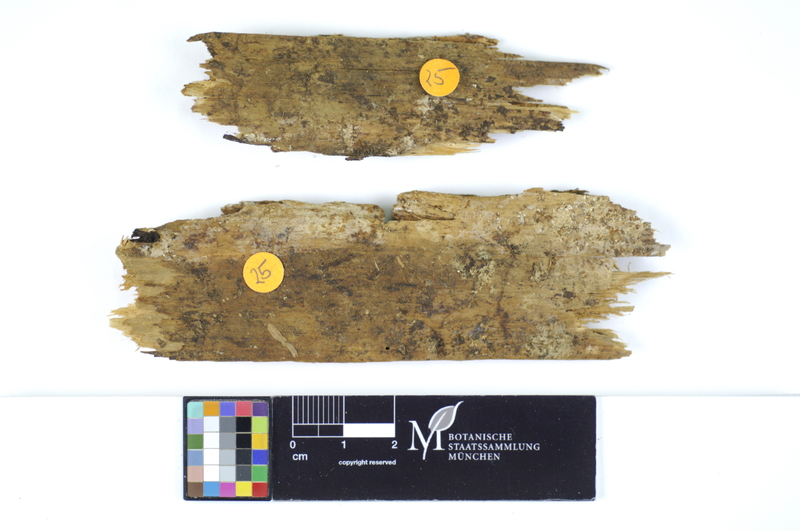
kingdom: Plantae
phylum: Tracheophyta
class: Pinopsida
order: Pinales
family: Pinaceae
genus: Pinus
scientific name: Pinus
